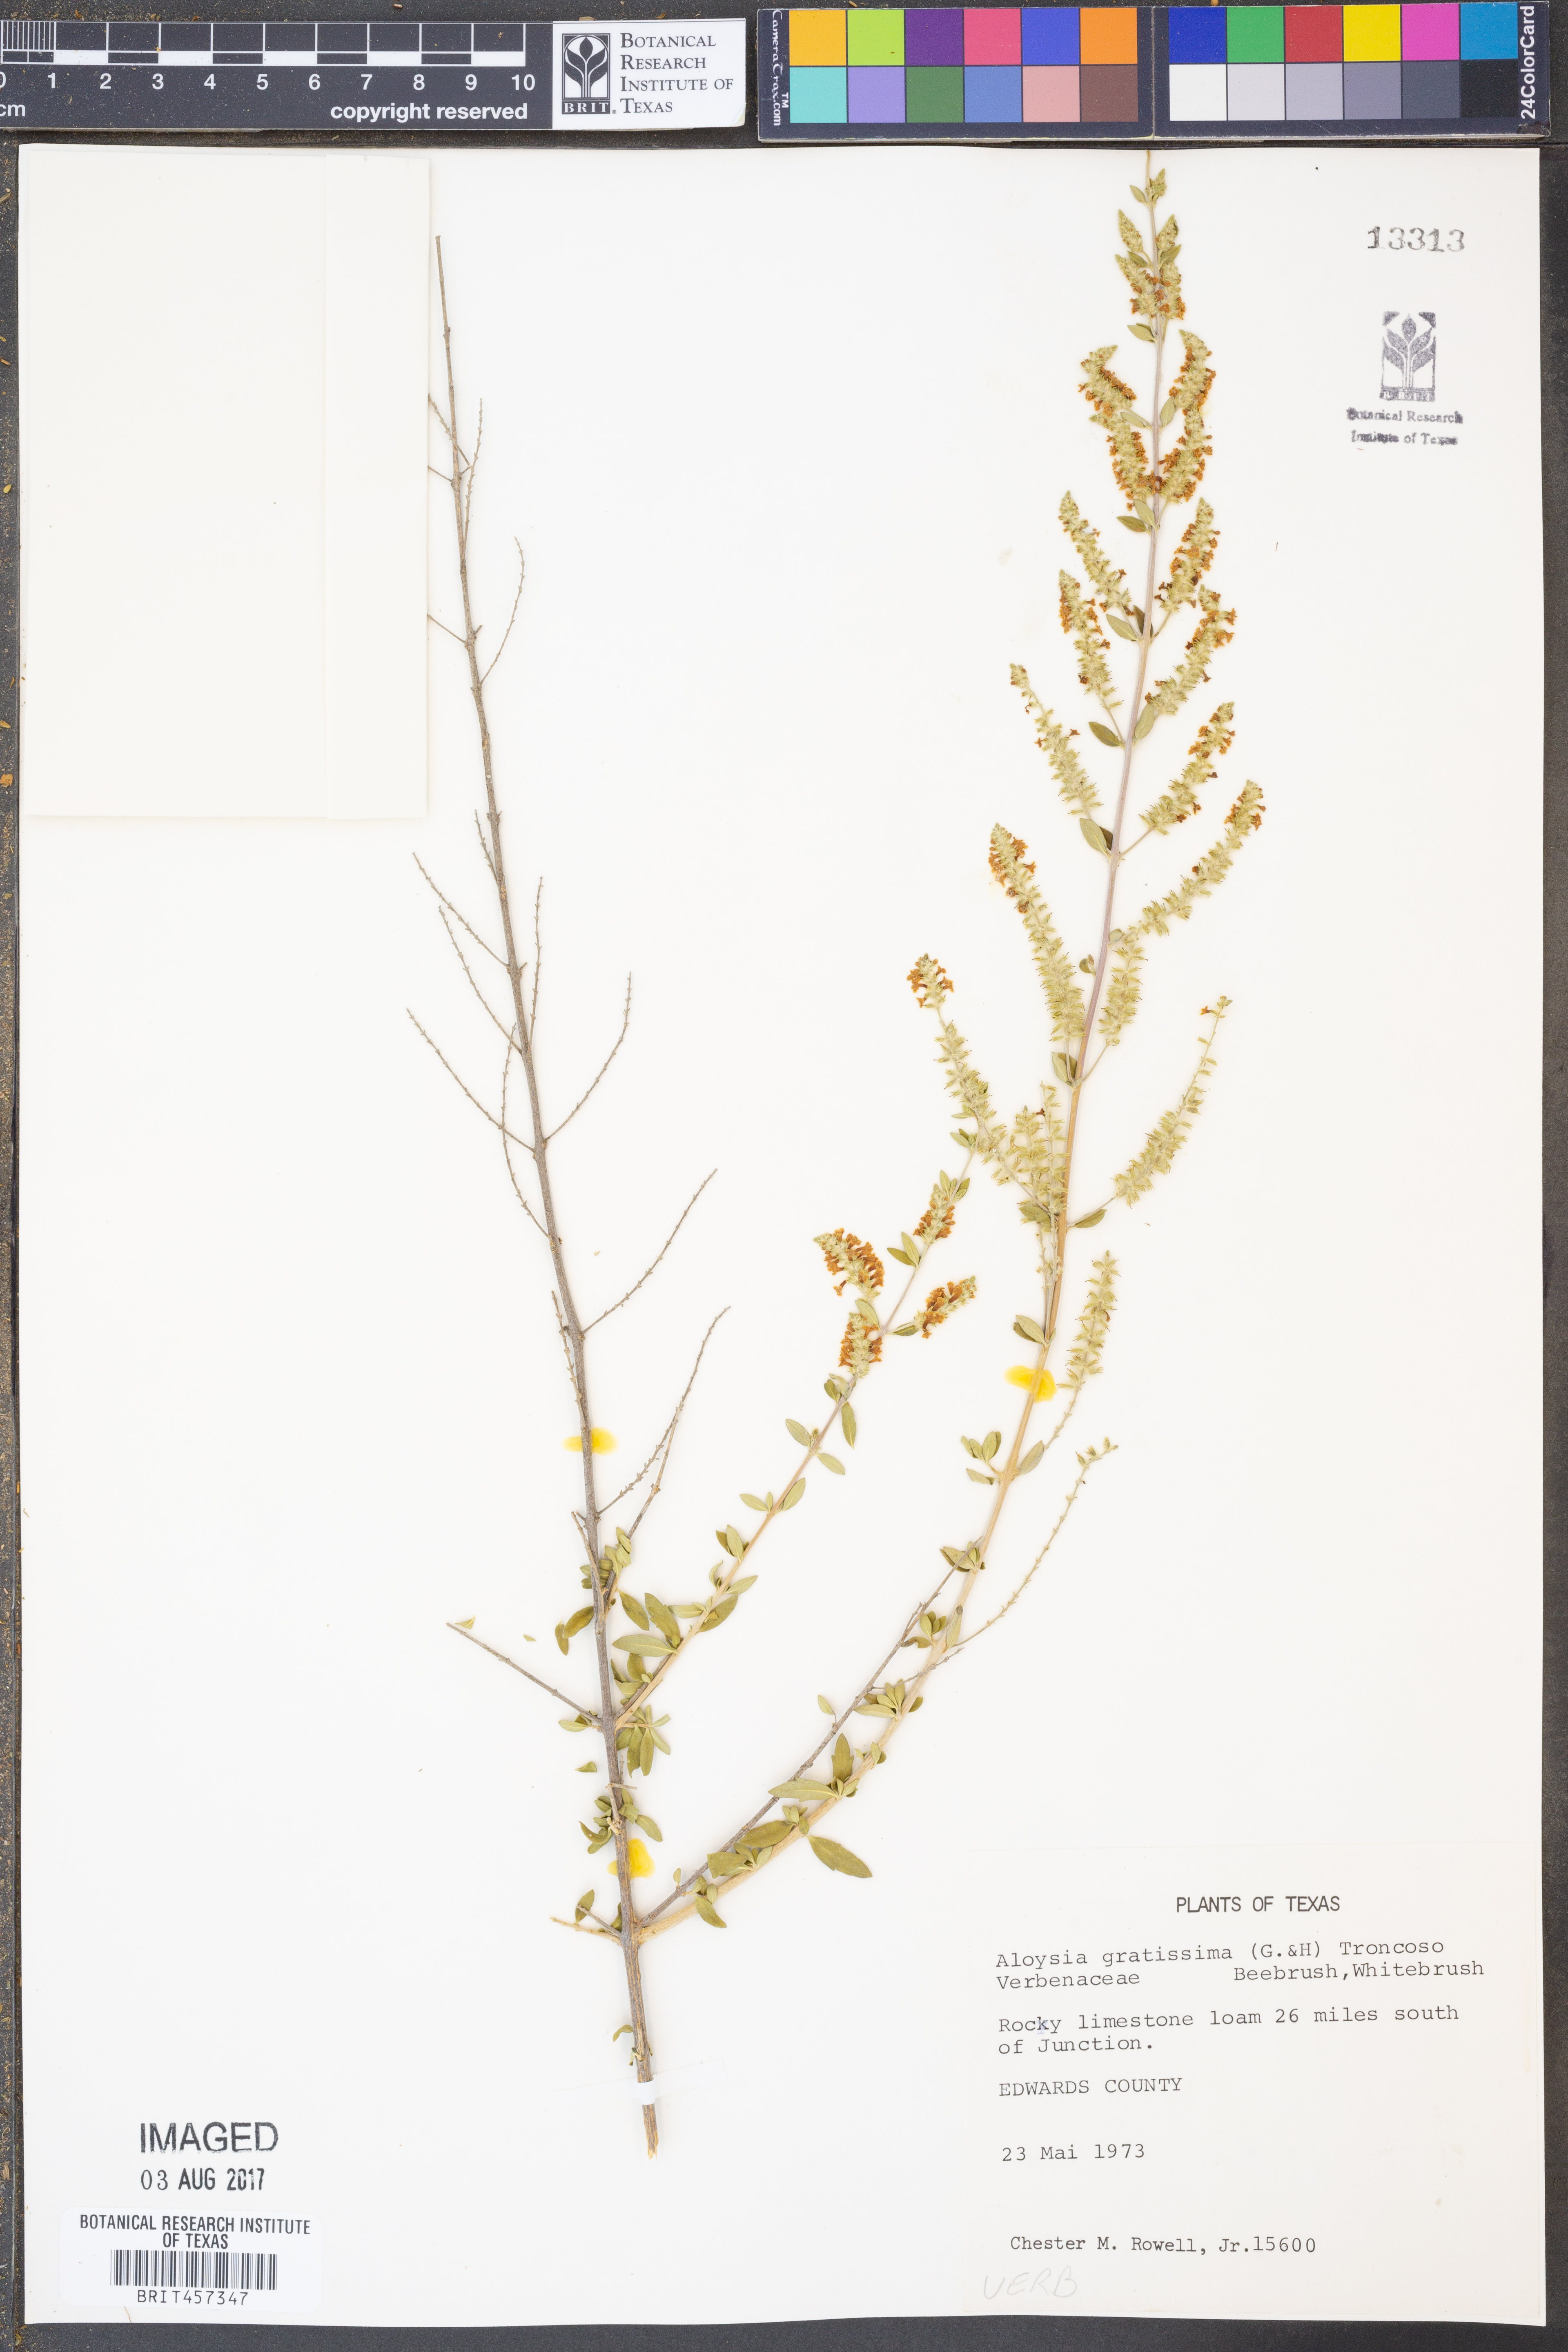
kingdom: Plantae
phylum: Tracheophyta
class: Magnoliopsida
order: Lamiales
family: Verbenaceae
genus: Aloysia
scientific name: Aloysia gratissima
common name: Common bee-brush
